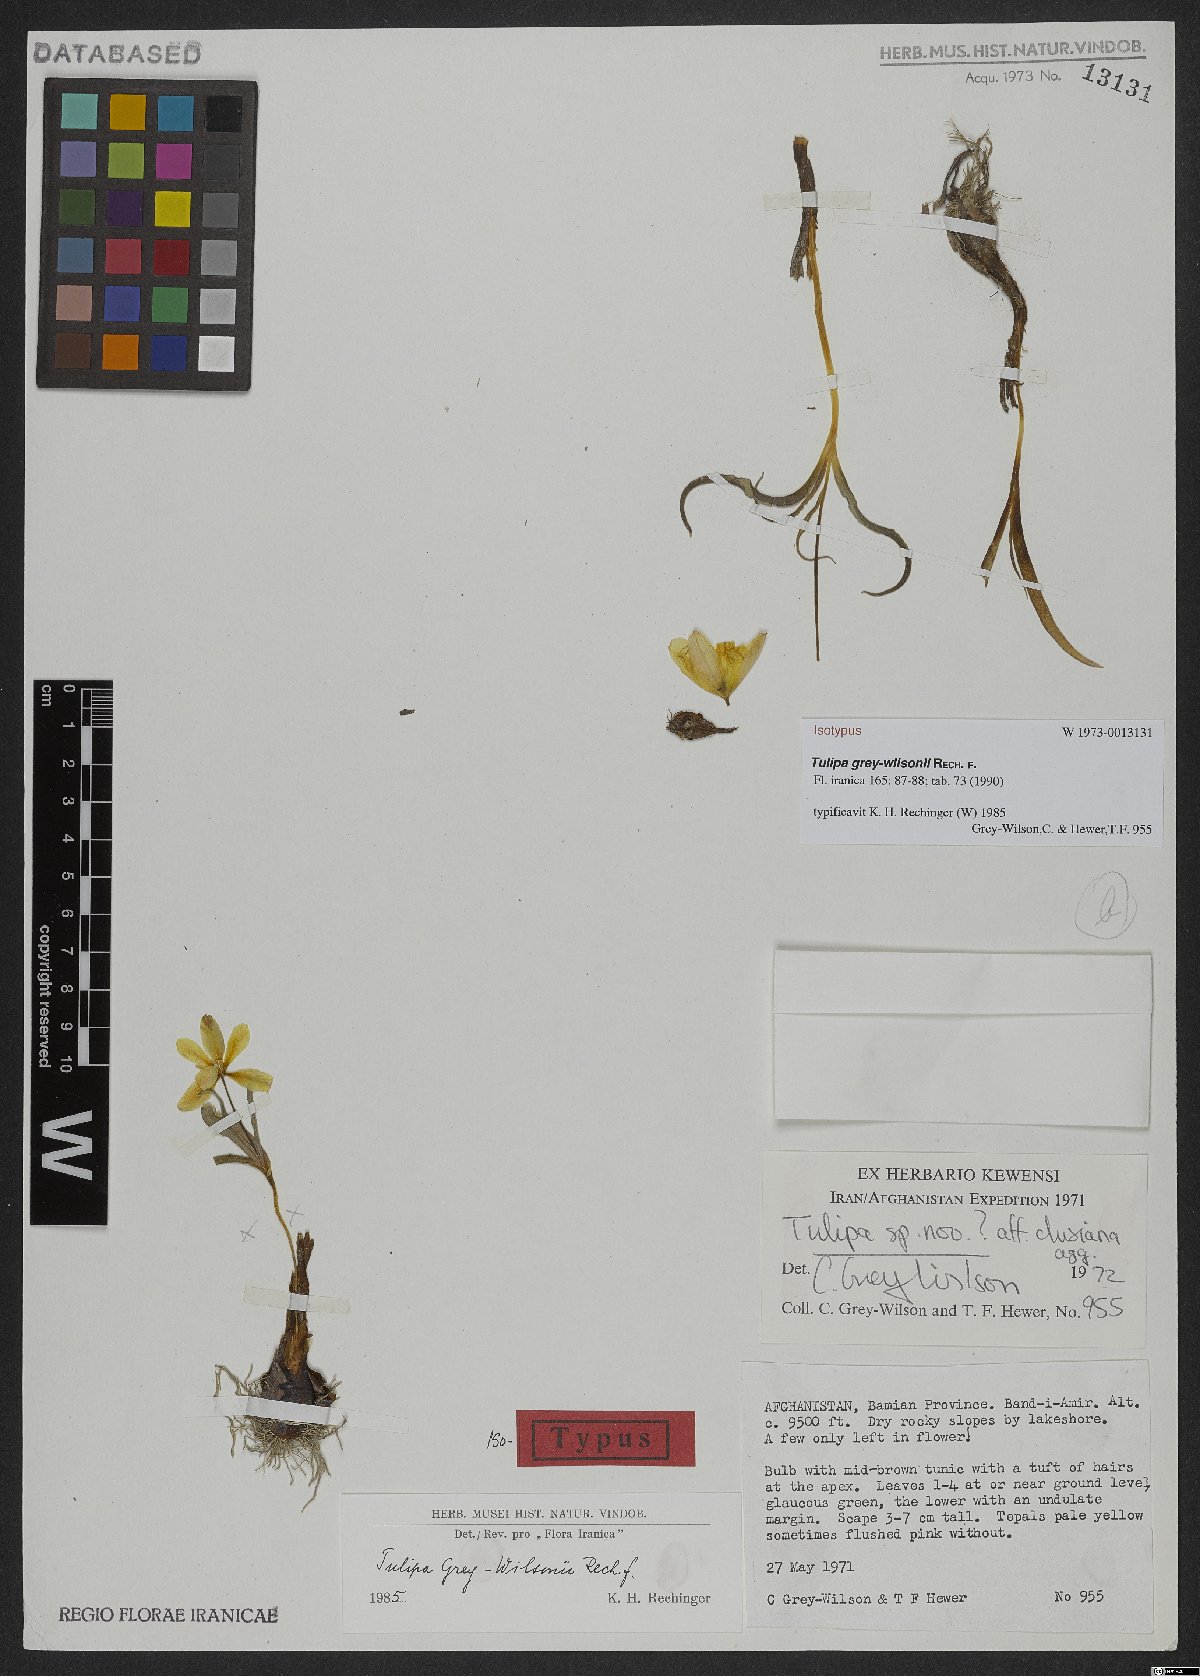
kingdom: Plantae
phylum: Tracheophyta
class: Liliopsida
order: Liliales
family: Liliaceae
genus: Tulipa
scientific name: Tulipa clusiana
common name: Lady tulip
